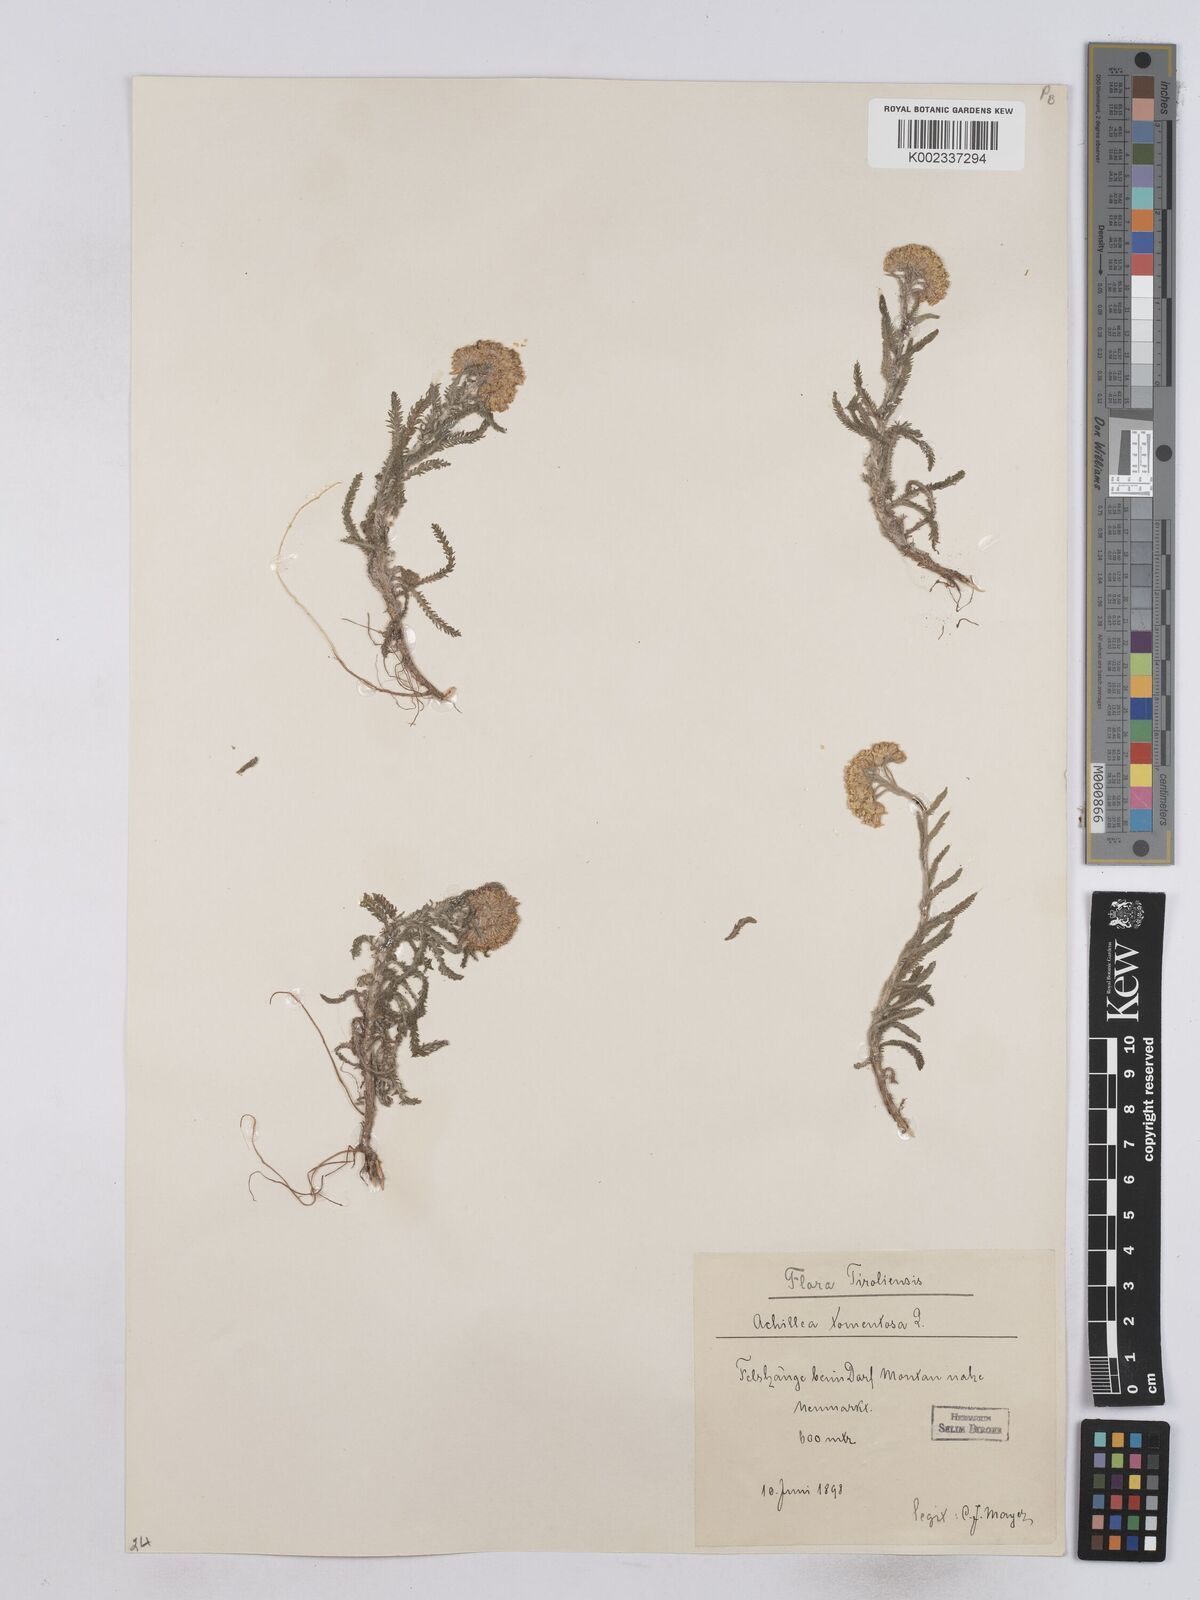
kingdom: Plantae
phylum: Tracheophyta
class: Magnoliopsida
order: Asterales
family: Asteraceae
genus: Achillea
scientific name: Achillea tomentosa
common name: Yellow milfoil
